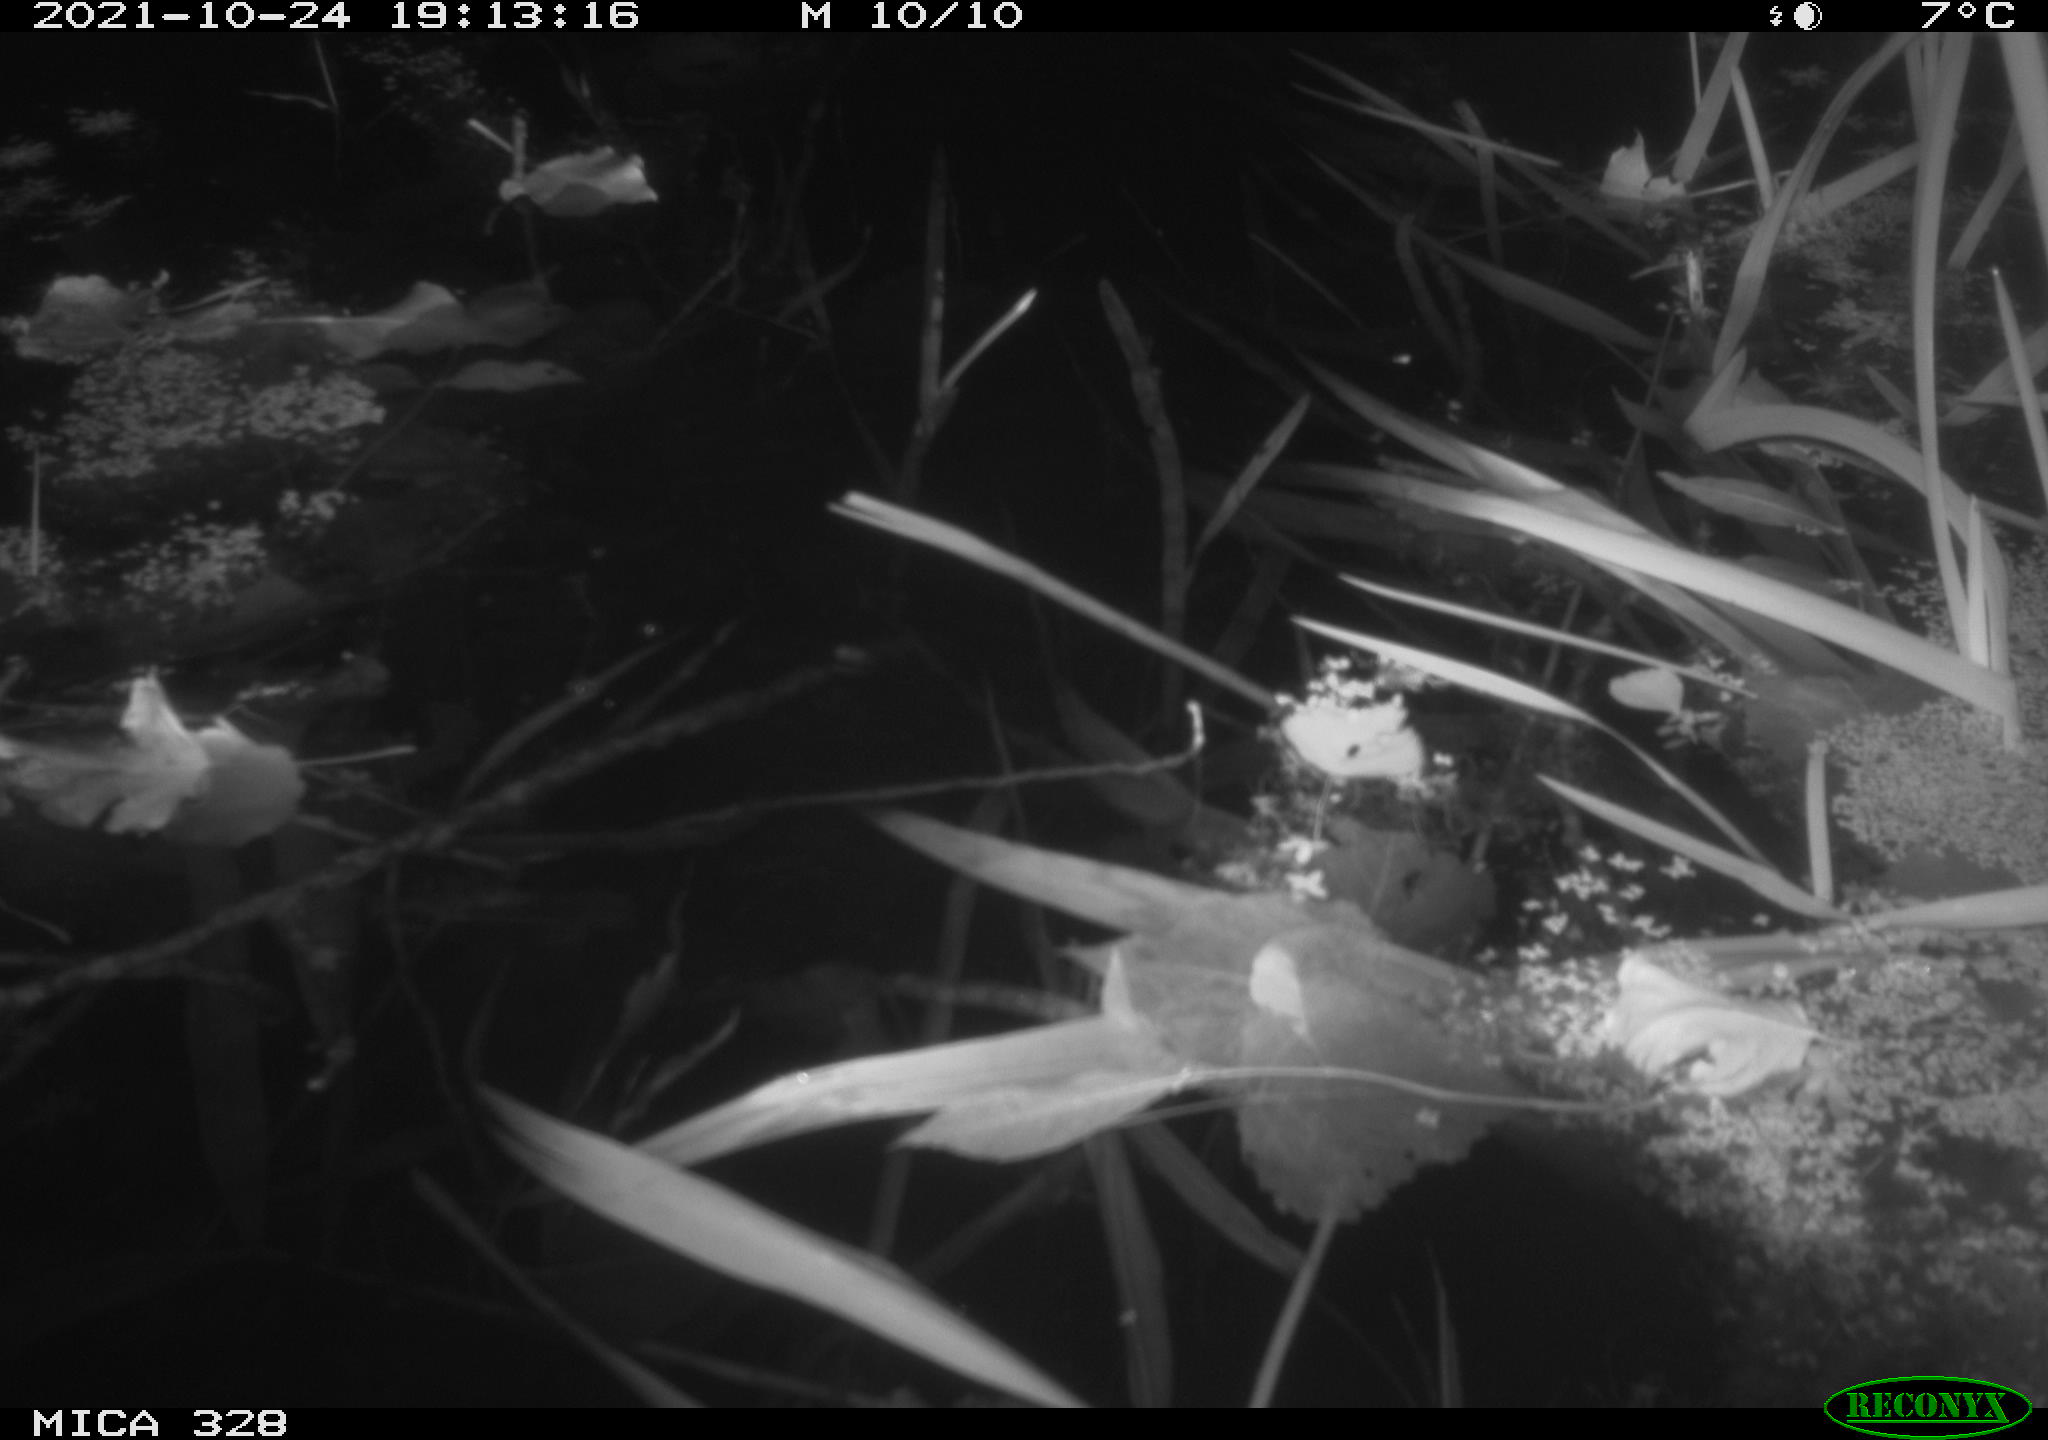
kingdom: Animalia
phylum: Chordata
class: Mammalia
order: Rodentia
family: Cricetidae
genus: Ondatra
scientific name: Ondatra zibethicus
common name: Muskrat
